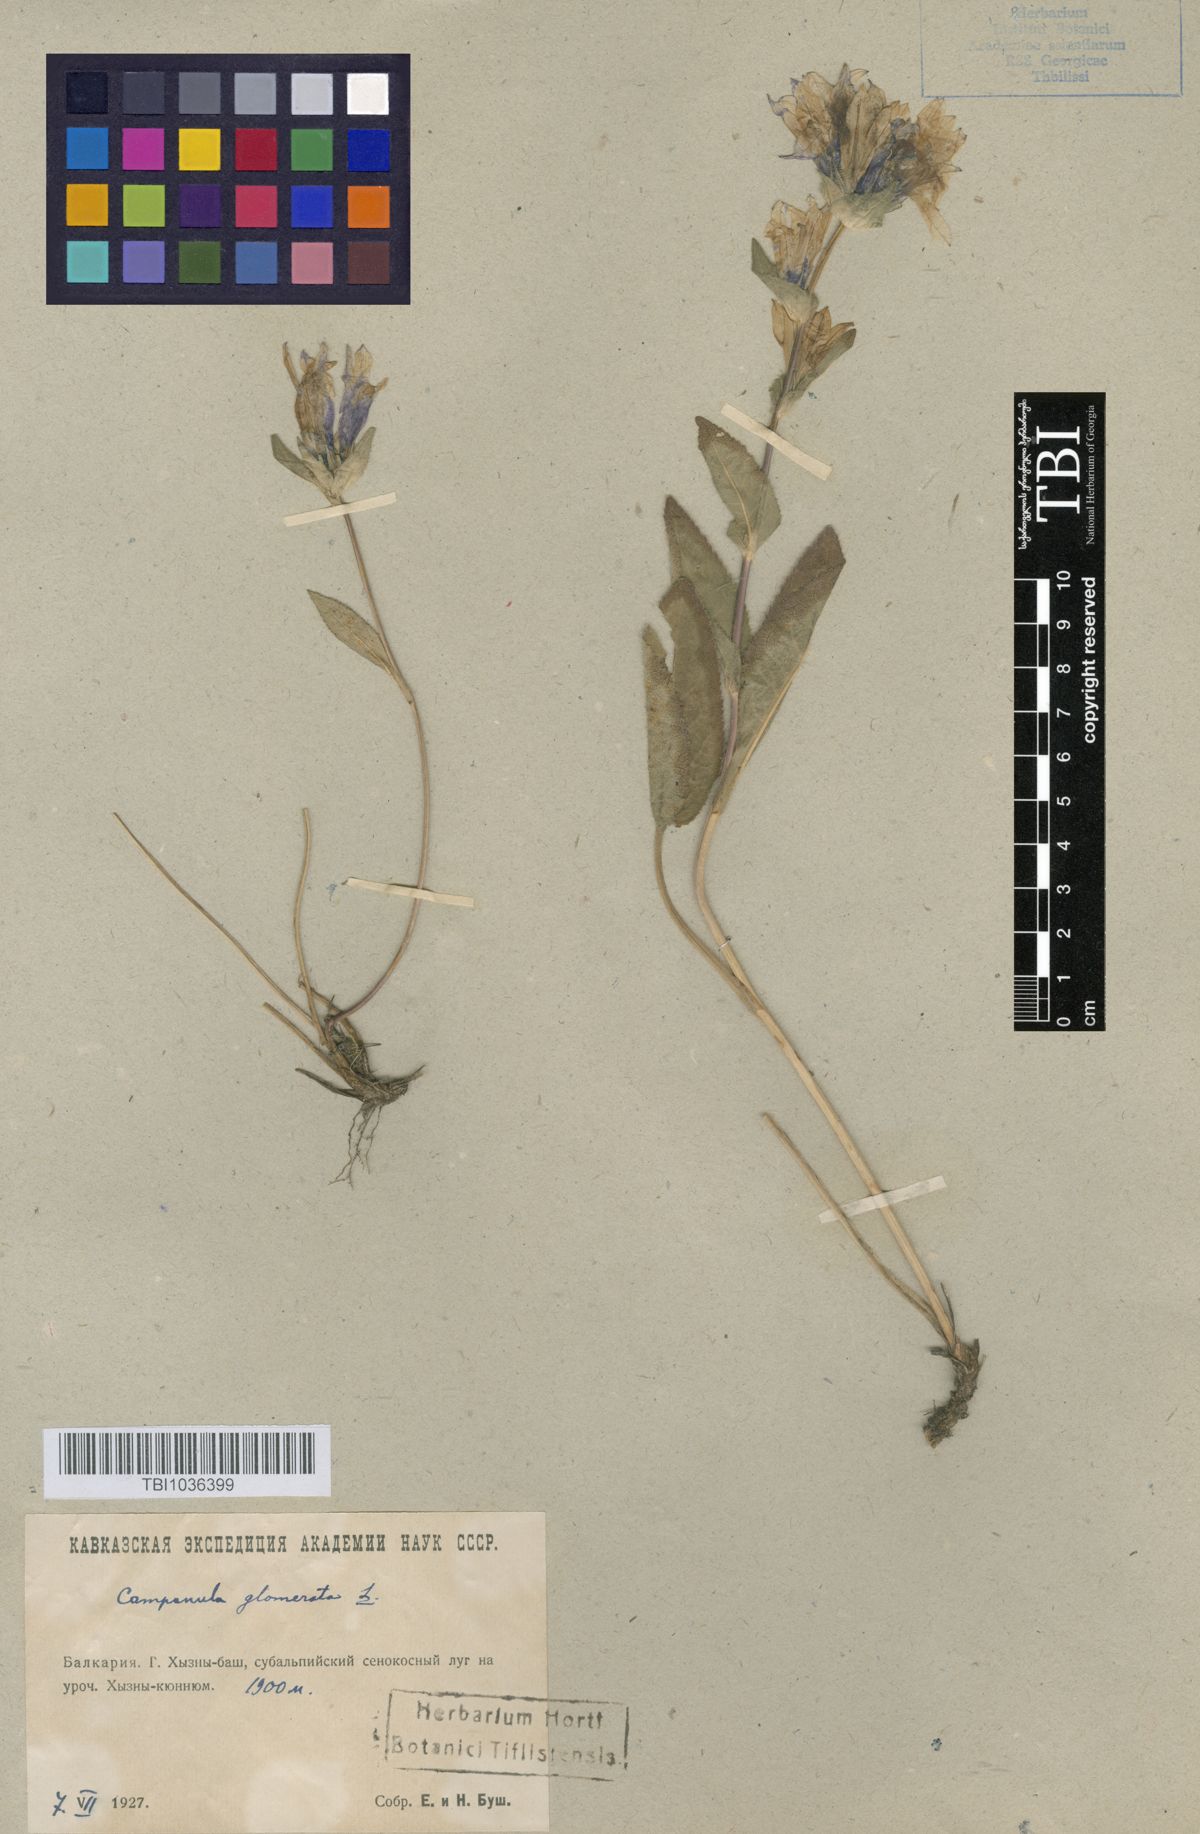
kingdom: Plantae
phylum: Tracheophyta
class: Magnoliopsida
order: Asterales
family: Campanulaceae
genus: Campanula
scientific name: Campanula glomerata
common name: Clustered bellflower
